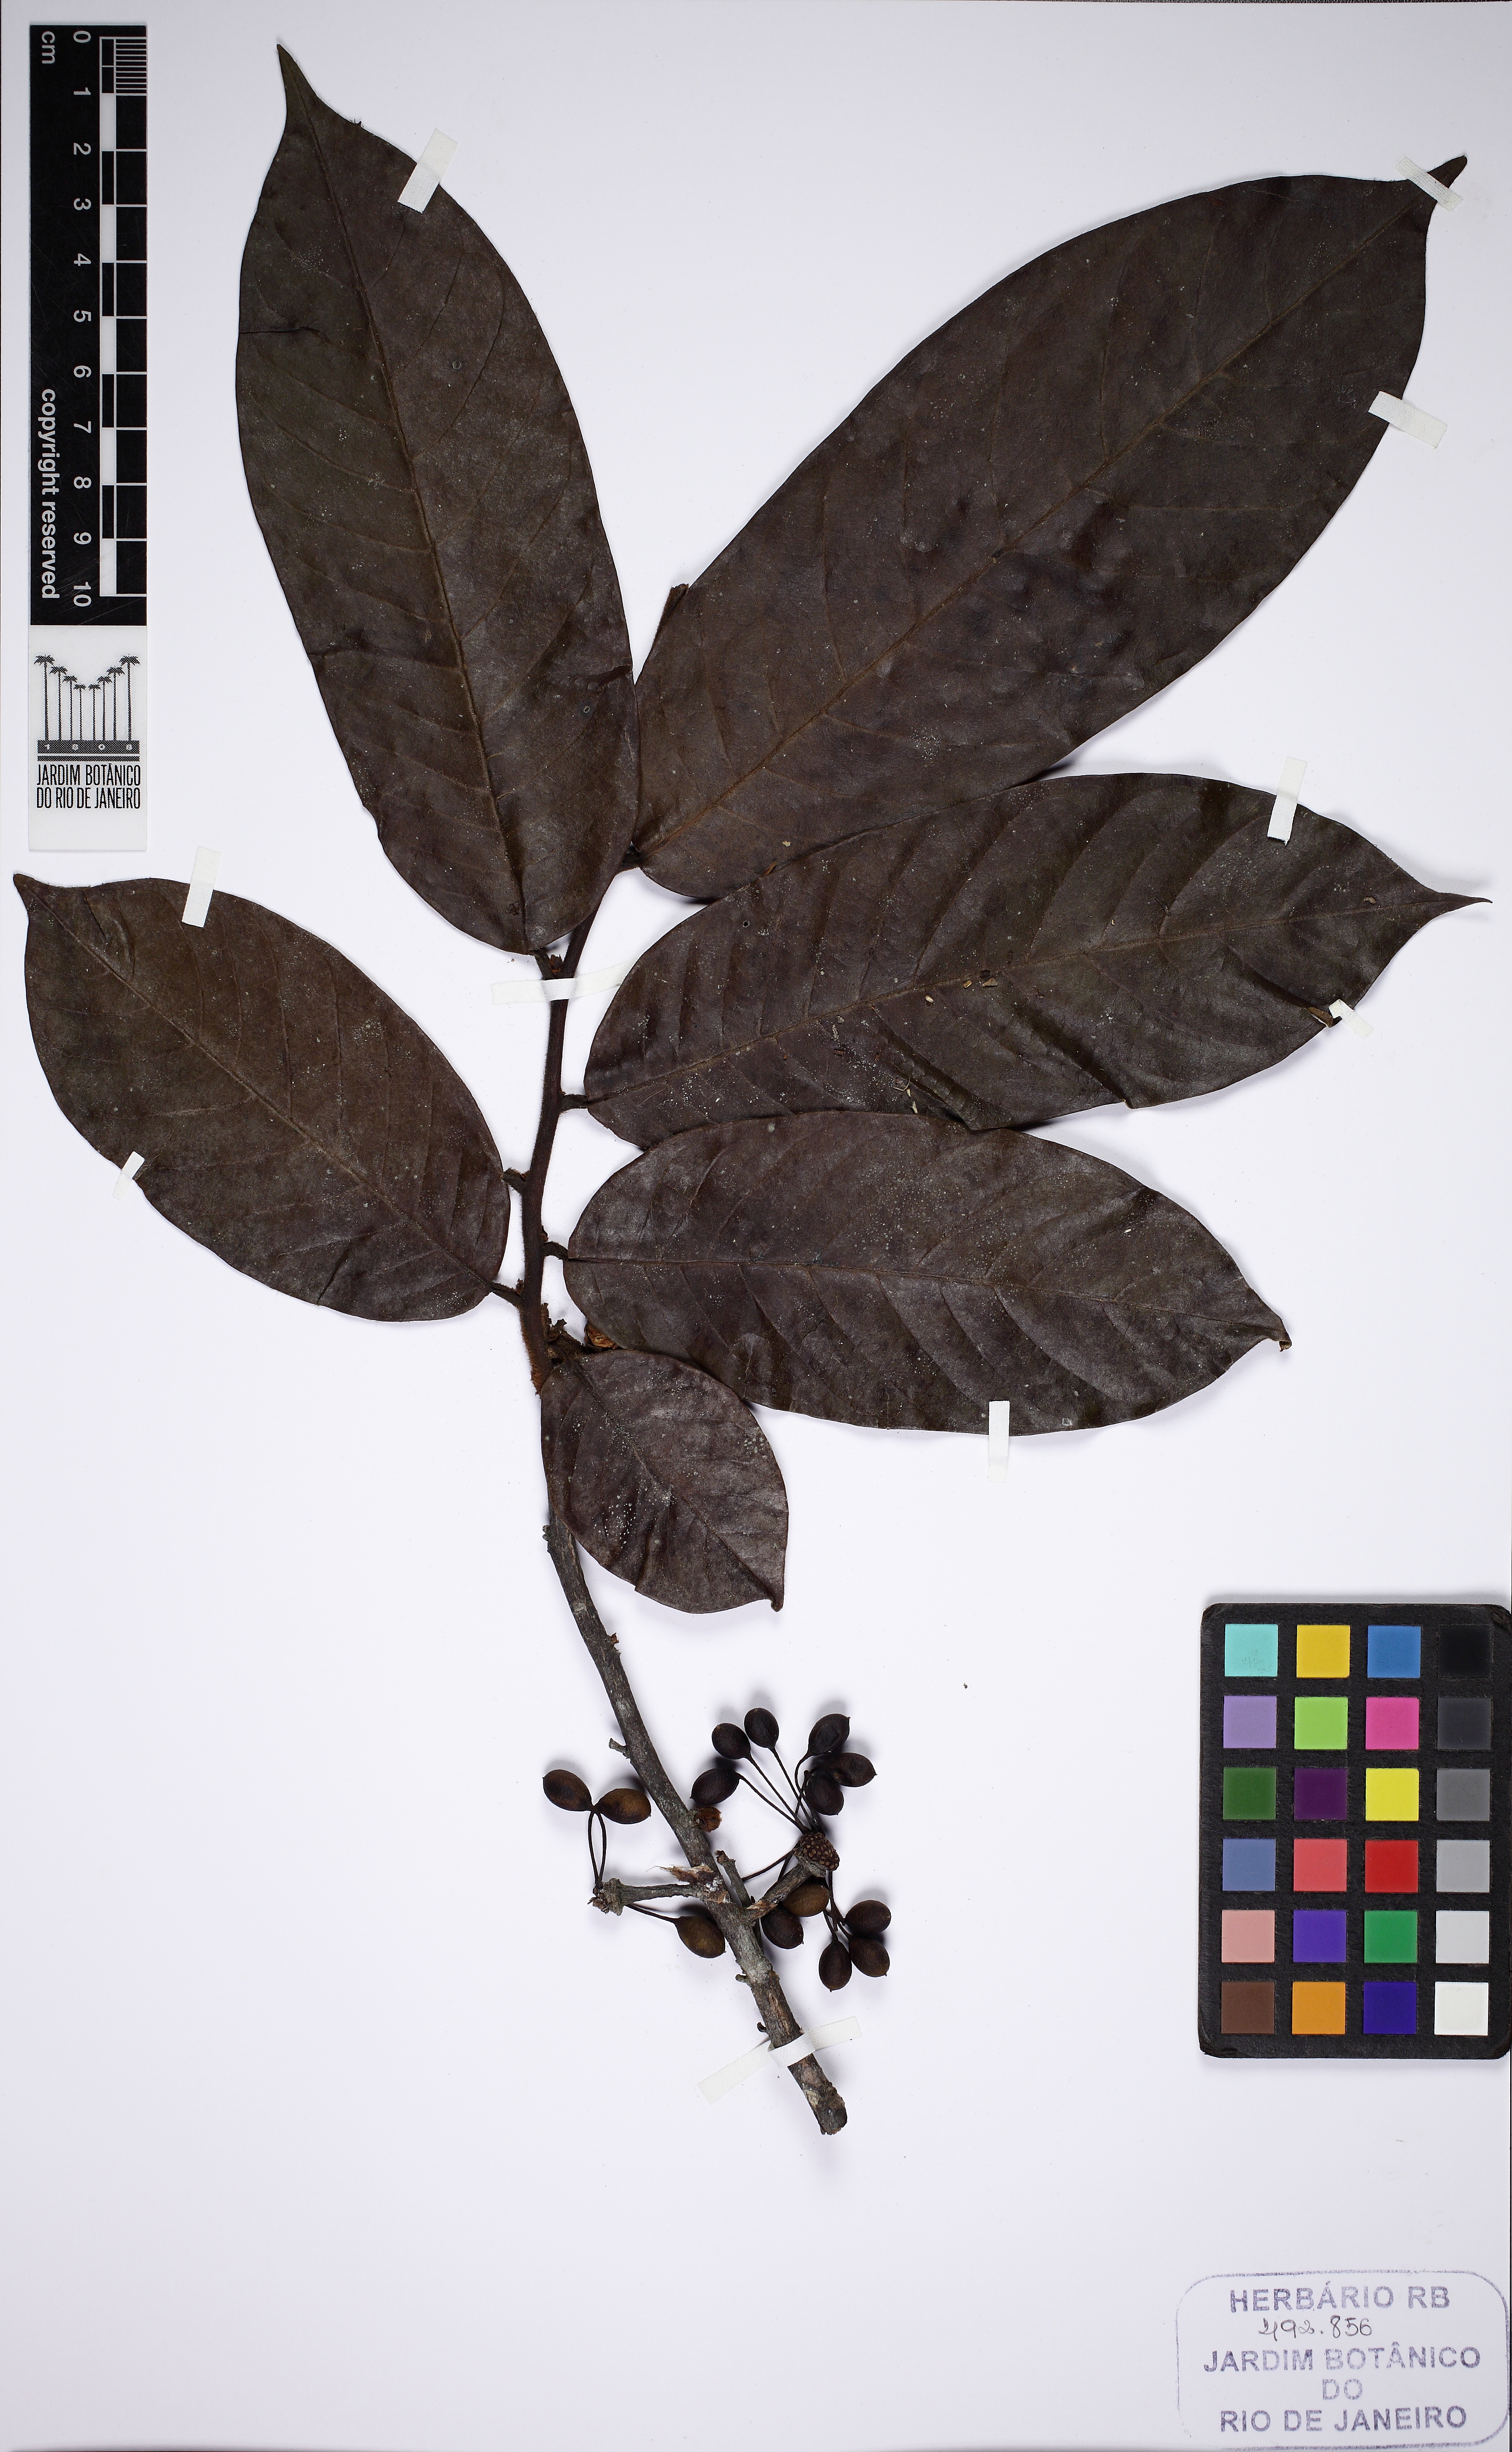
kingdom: Plantae
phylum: Tracheophyta
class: Magnoliopsida
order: Magnoliales
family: Annonaceae
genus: Guatteria
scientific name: Guatteria
